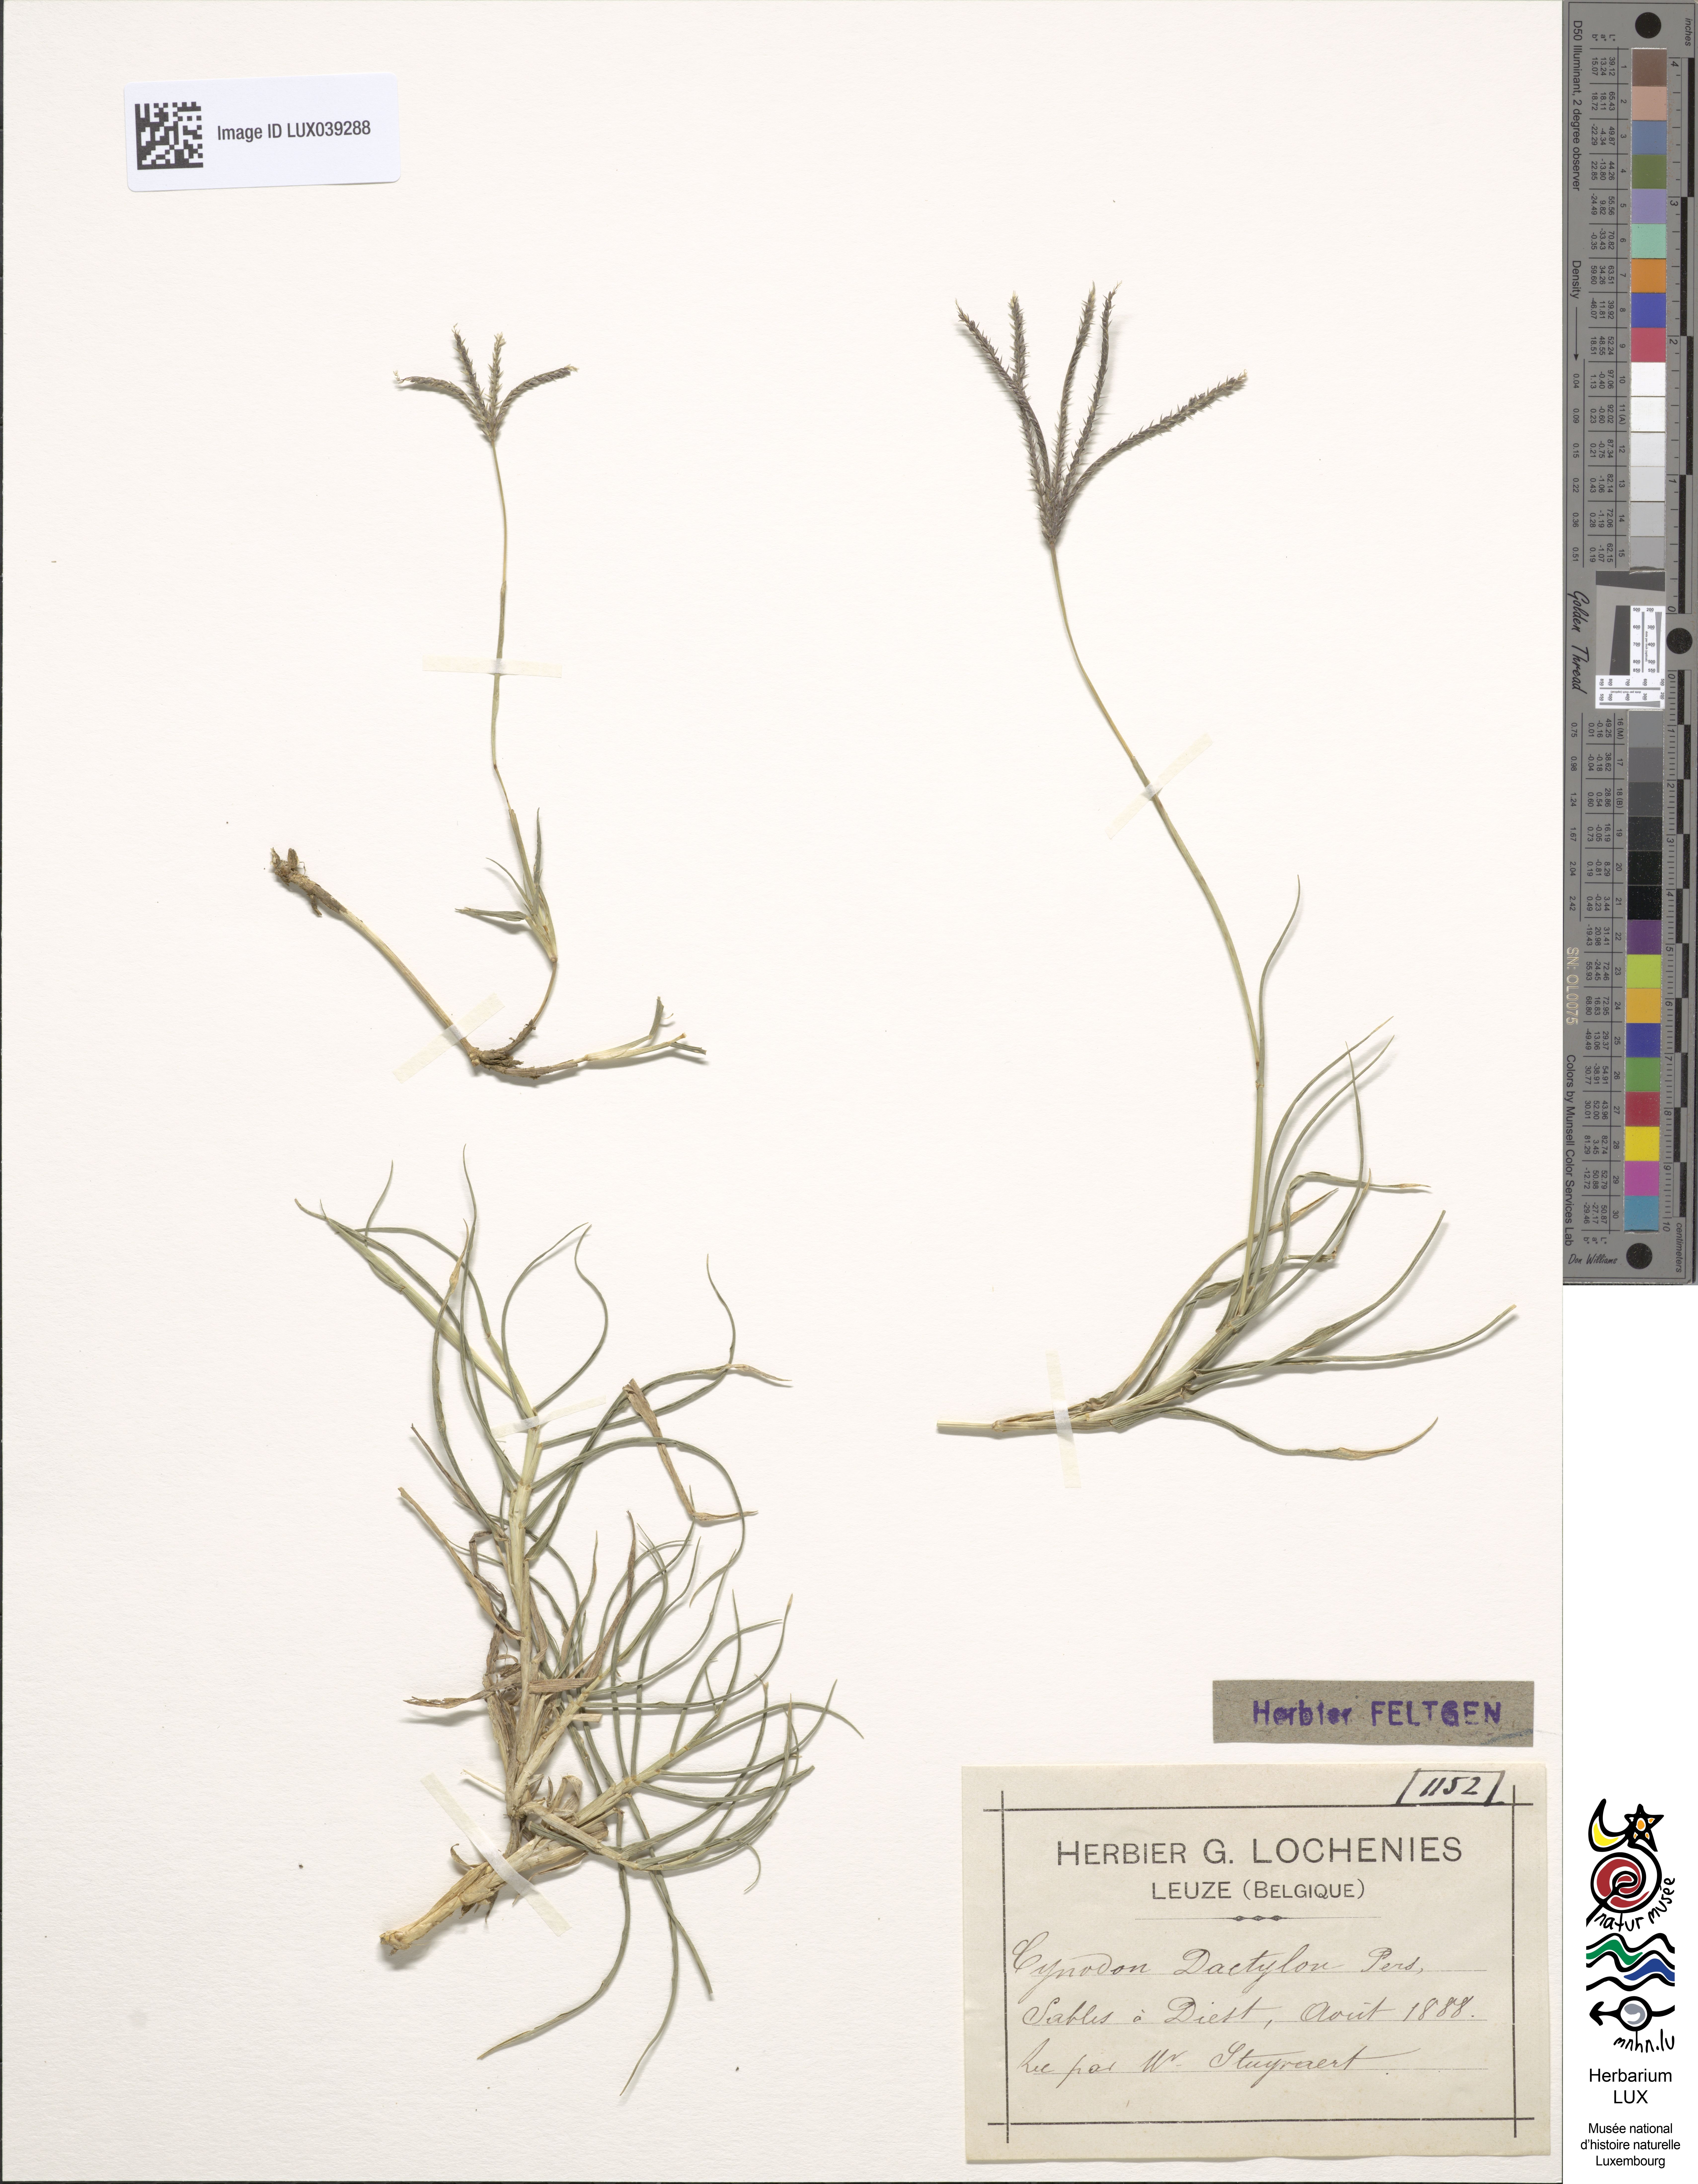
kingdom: Plantae
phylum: Tracheophyta
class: Liliopsida
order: Poales
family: Poaceae
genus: Cynodon
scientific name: Cynodon dactylon
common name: Bermuda grass
